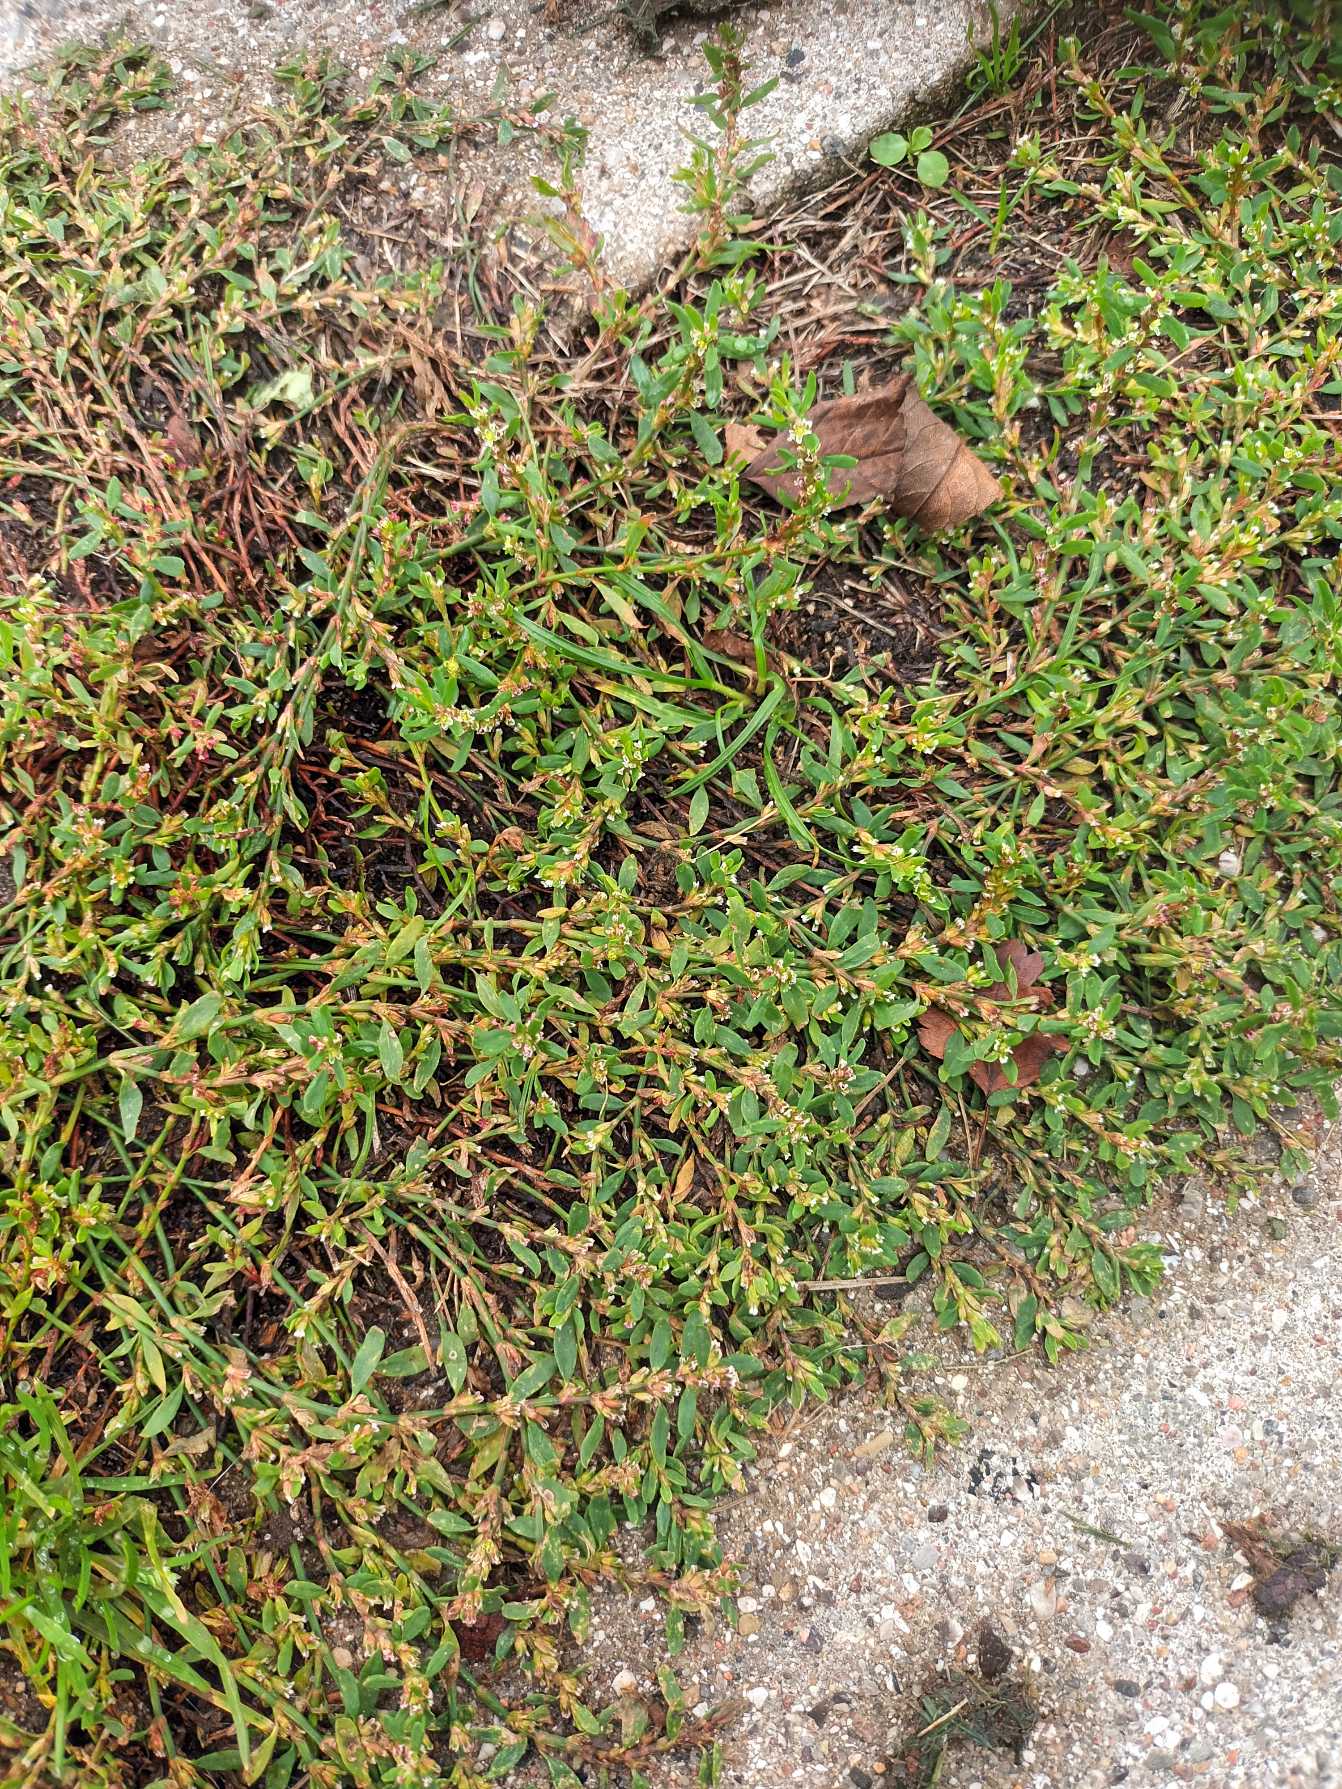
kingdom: Plantae
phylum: Tracheophyta
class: Magnoliopsida
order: Caryophyllales
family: Polygonaceae
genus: Polygonum
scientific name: Polygonum arenastrum
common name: Liggende vej-pileurt
